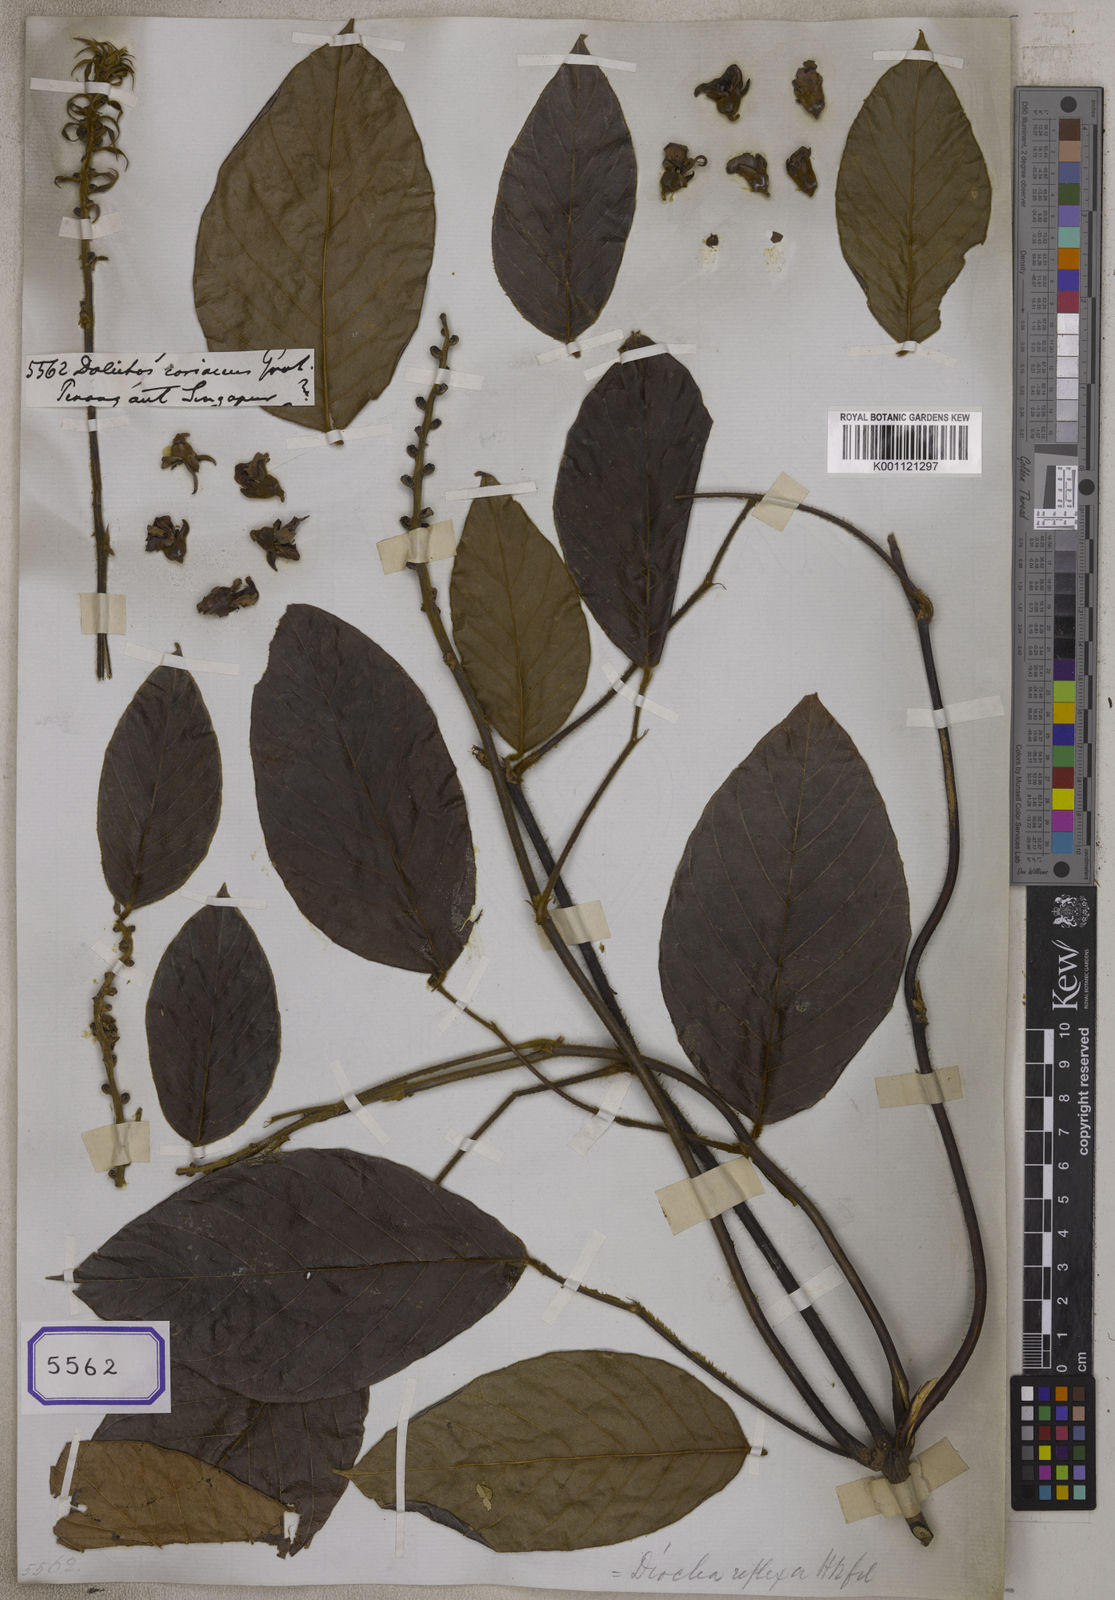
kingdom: Plantae
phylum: Tracheophyta
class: Magnoliopsida
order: Fabales
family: Fabaceae
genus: Macropsychanthus
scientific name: Macropsychanthus hexander
